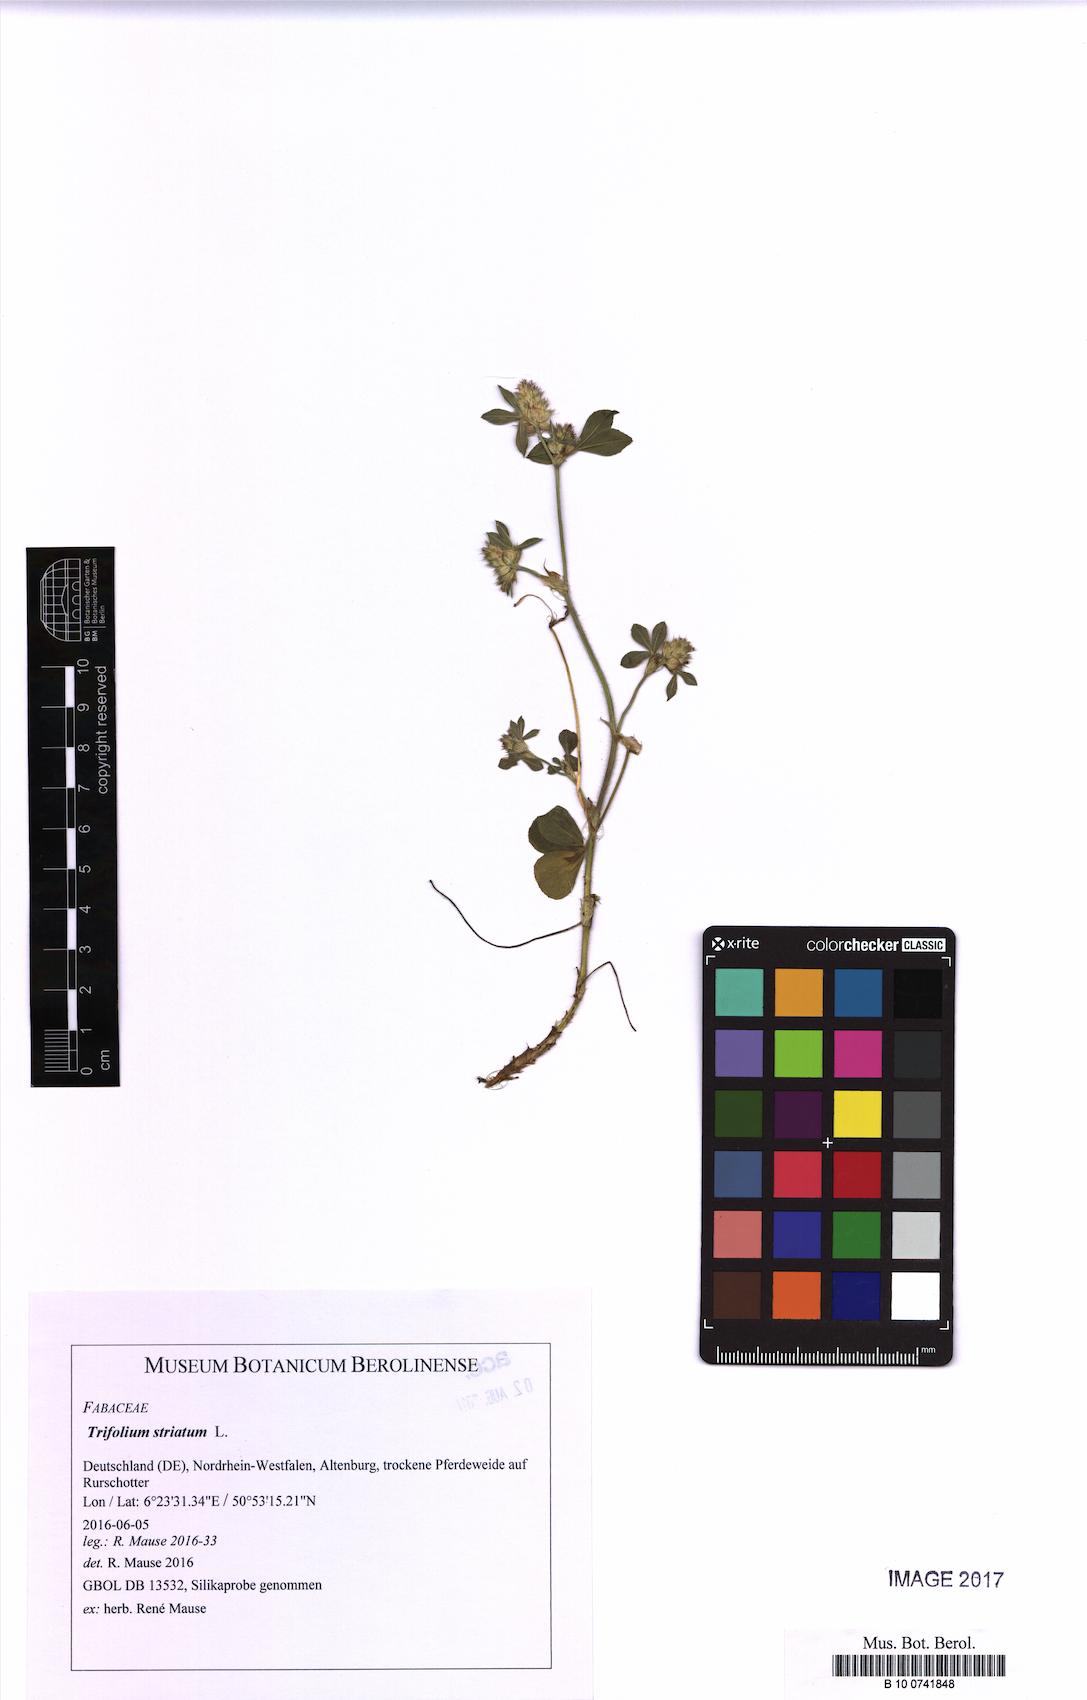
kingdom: Plantae
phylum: Tracheophyta
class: Magnoliopsida
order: Fabales
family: Fabaceae
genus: Trifolium
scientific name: Trifolium striatum
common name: Knotted clover
